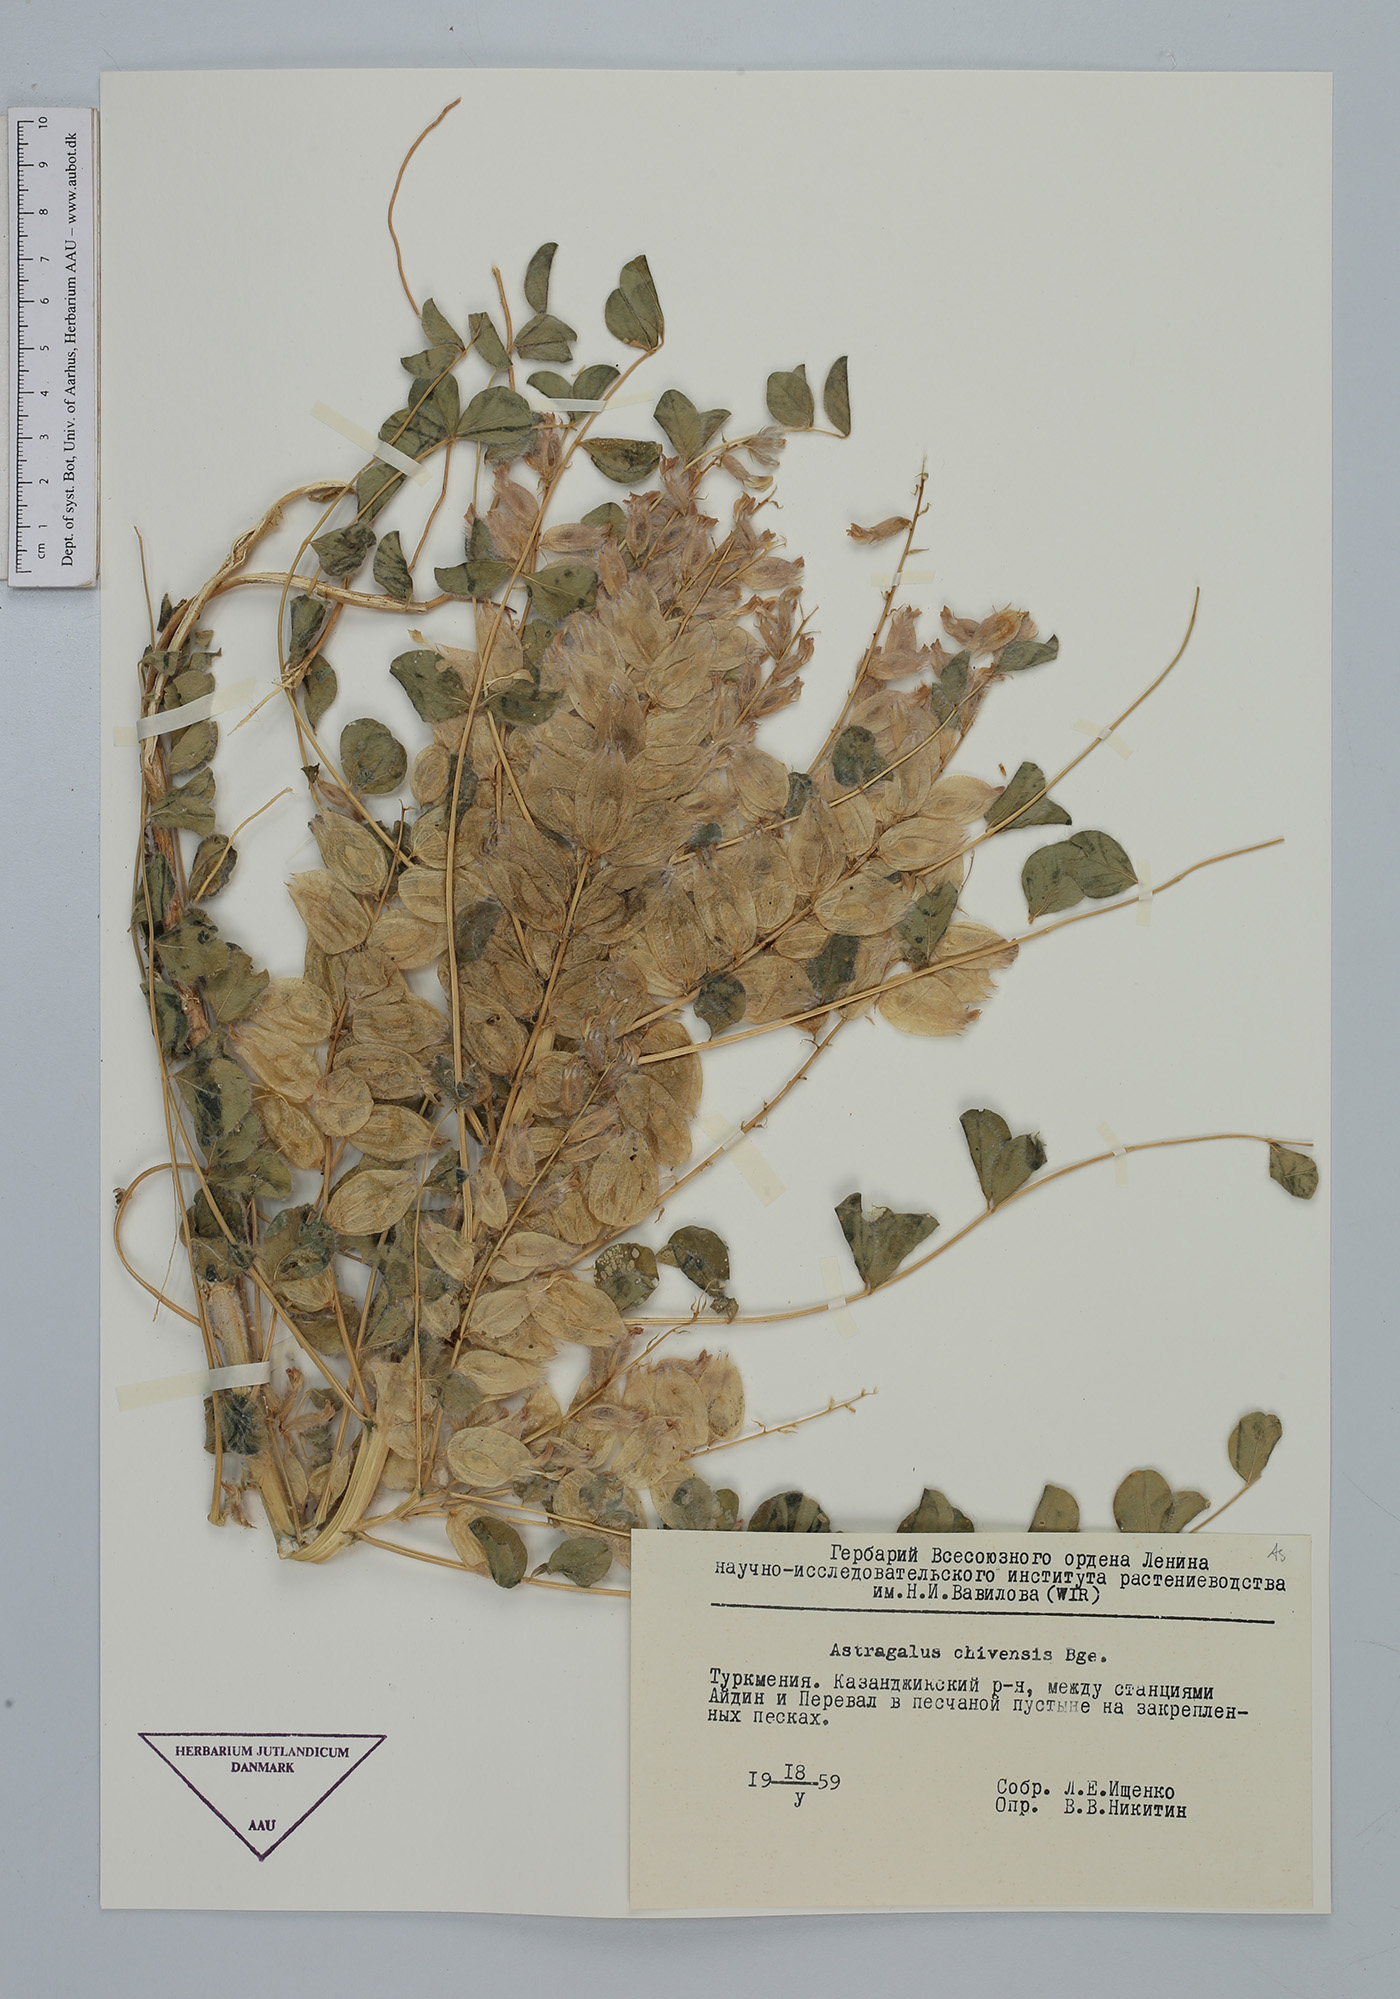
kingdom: Plantae
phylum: Tracheophyta
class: Magnoliopsida
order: Fabales
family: Fabaceae
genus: Astragalus
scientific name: Astragalus chiwensis
